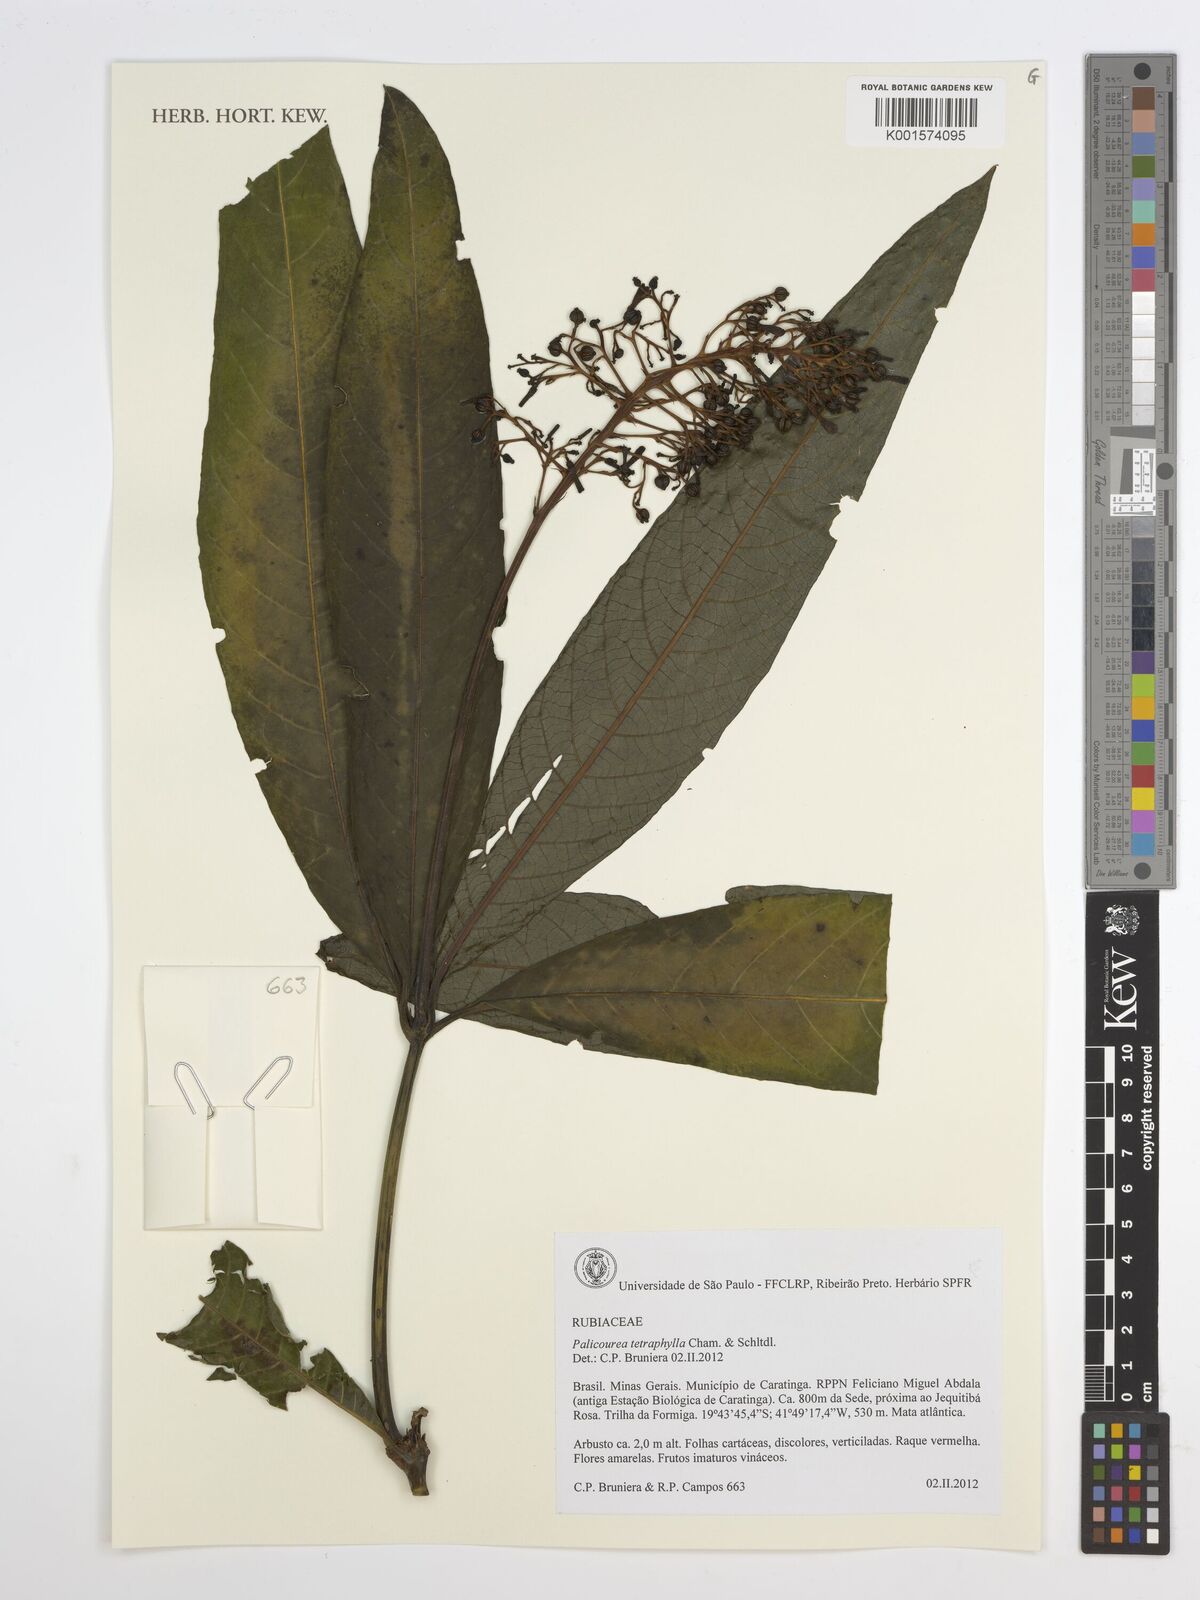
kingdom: Plantae
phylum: Tracheophyta
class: Magnoliopsida
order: Gentianales
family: Rubiaceae
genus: Palicourea
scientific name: Palicourea tetraphylla
